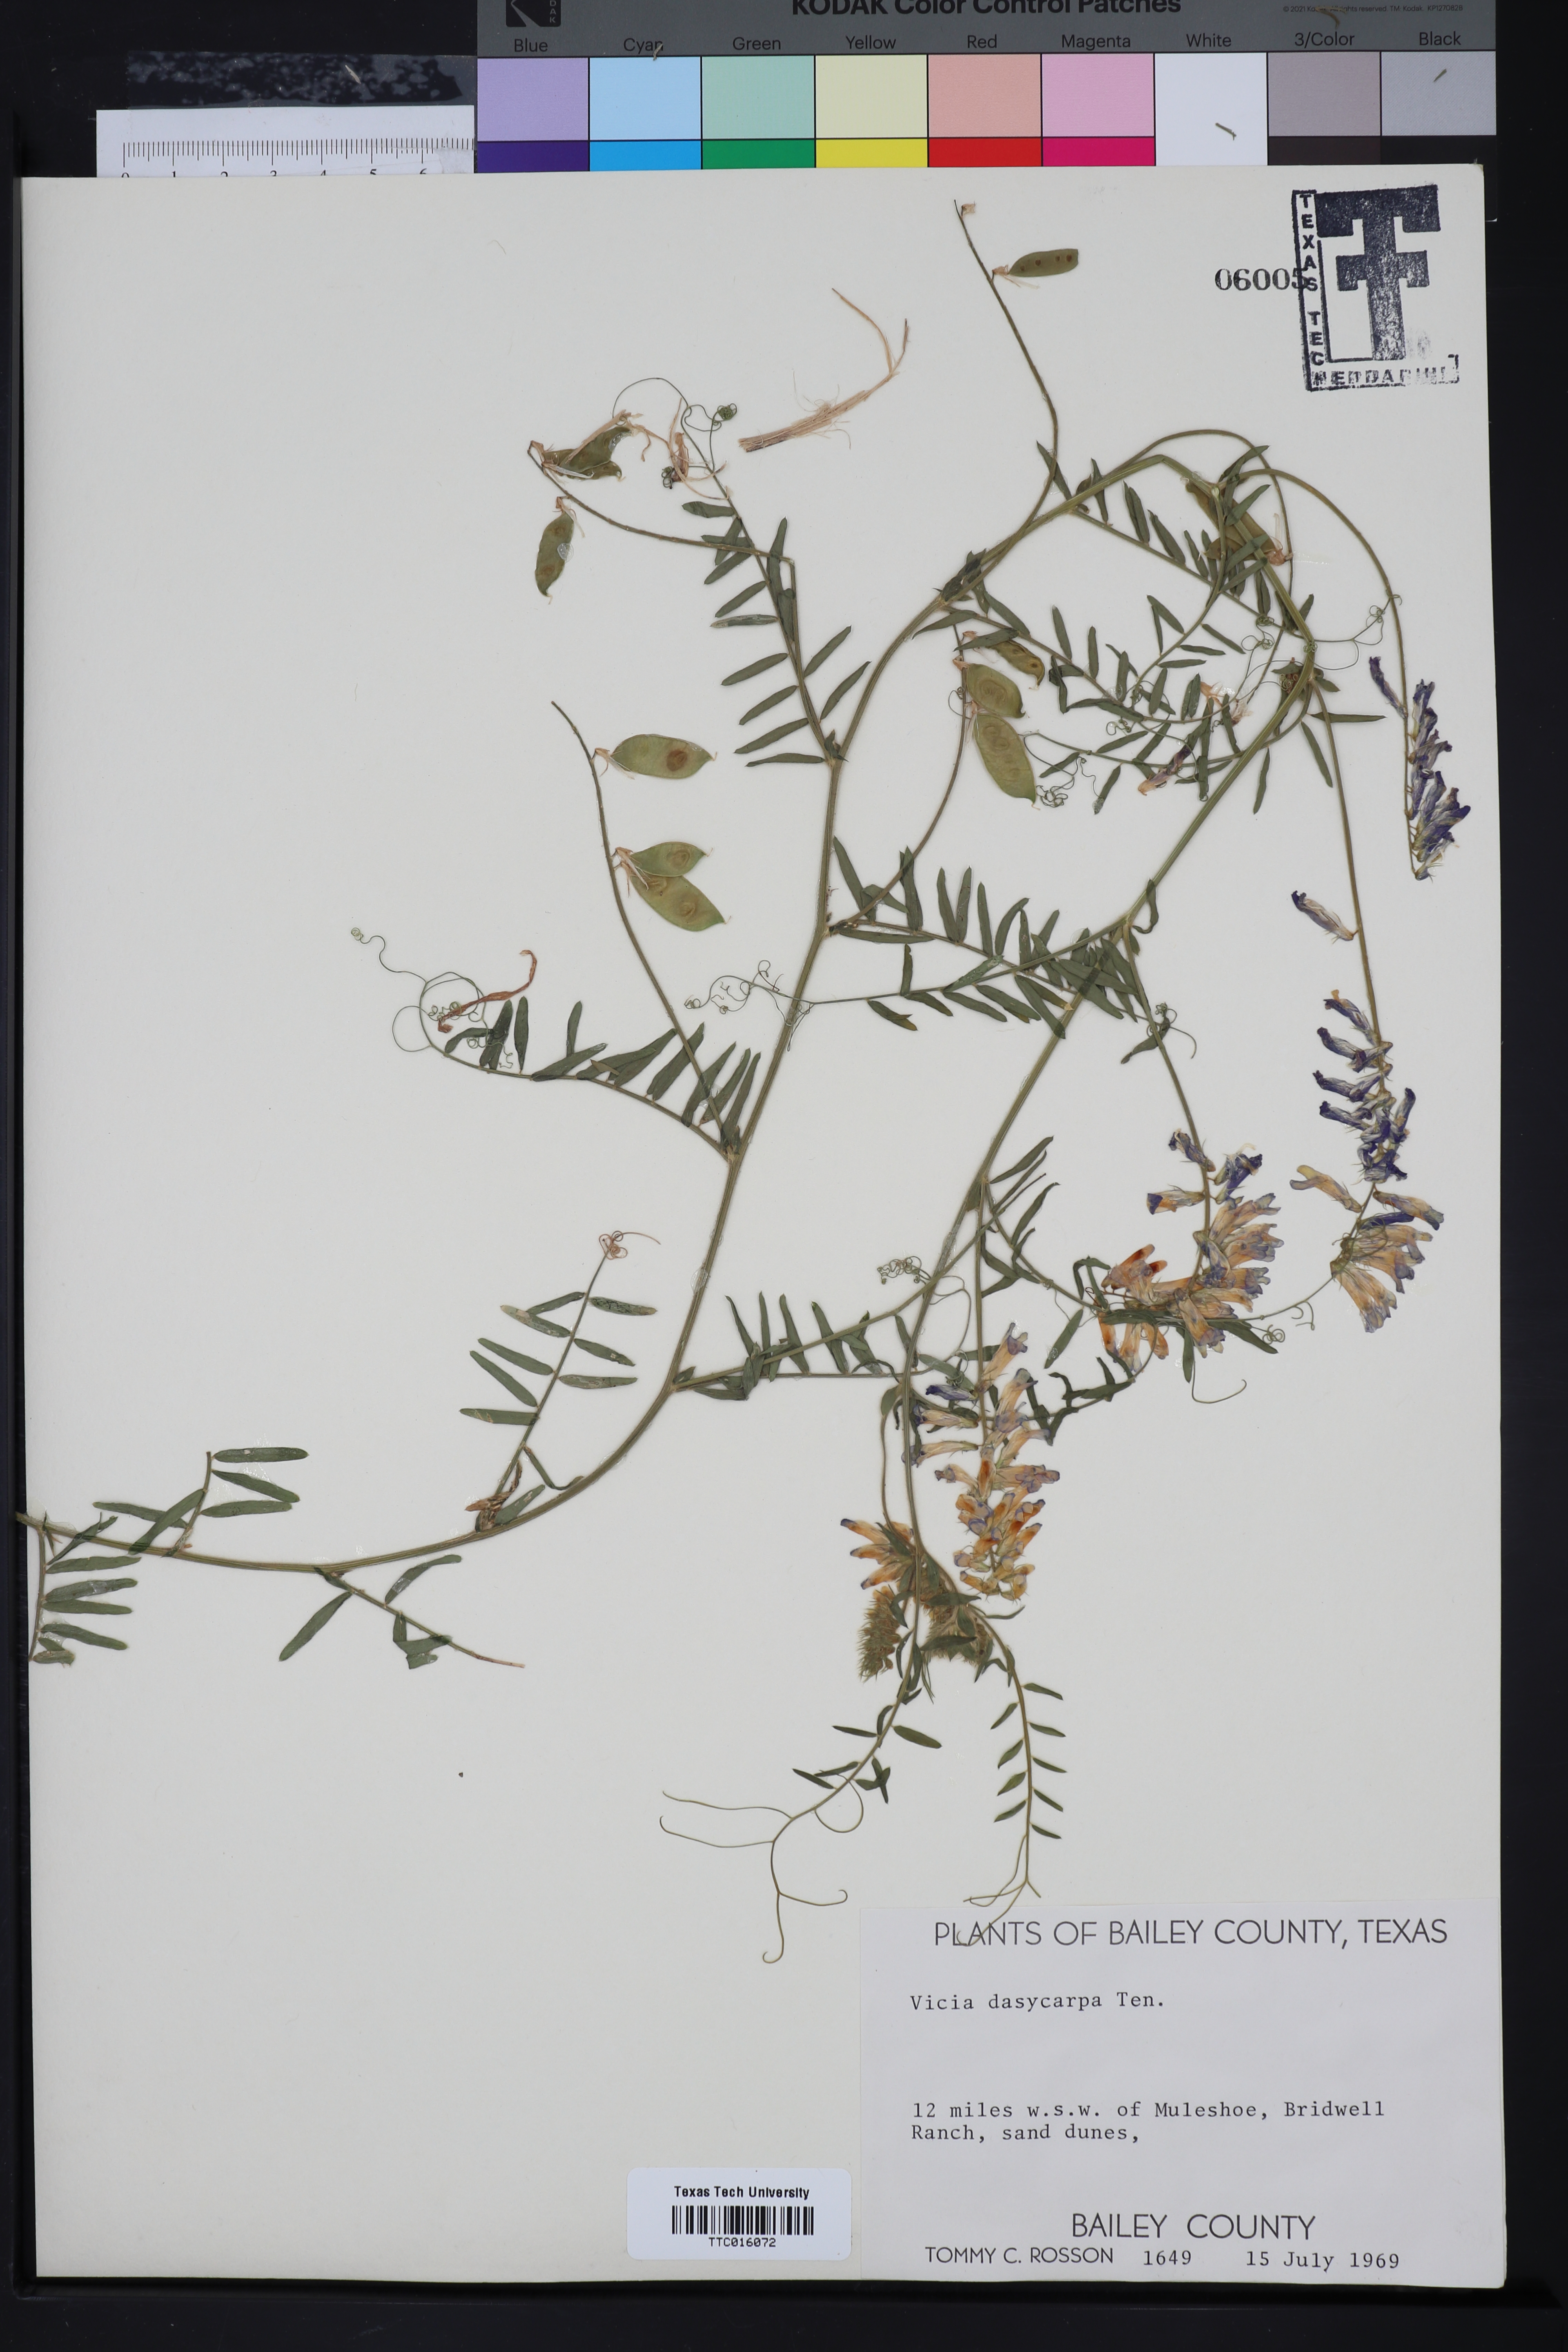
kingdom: Plantae
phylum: Tracheophyta
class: Magnoliopsida
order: Fabales
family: Fabaceae
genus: Vicia
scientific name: Vicia villosa
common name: Fodder vetch
